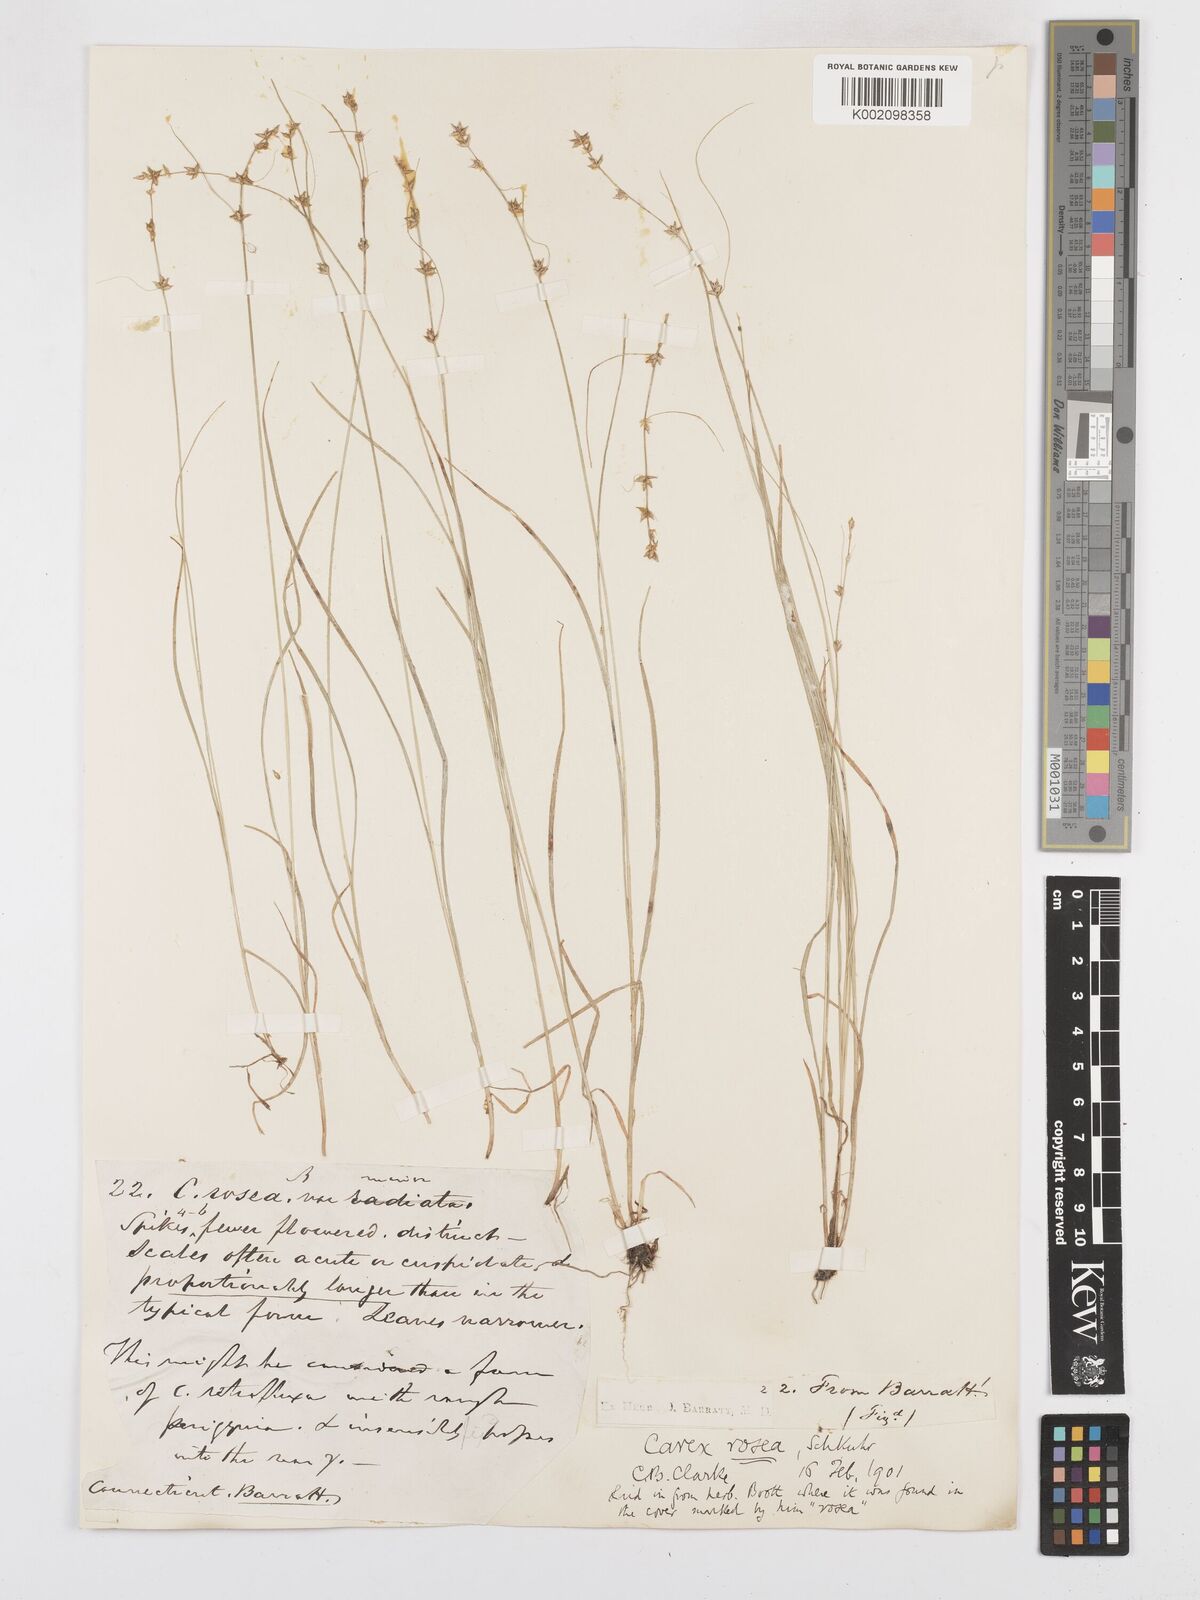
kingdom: Plantae
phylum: Tracheophyta
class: Liliopsida
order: Poales
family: Cyperaceae
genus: Carex
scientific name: Carex rosea
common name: Curly-styled wood sedge
